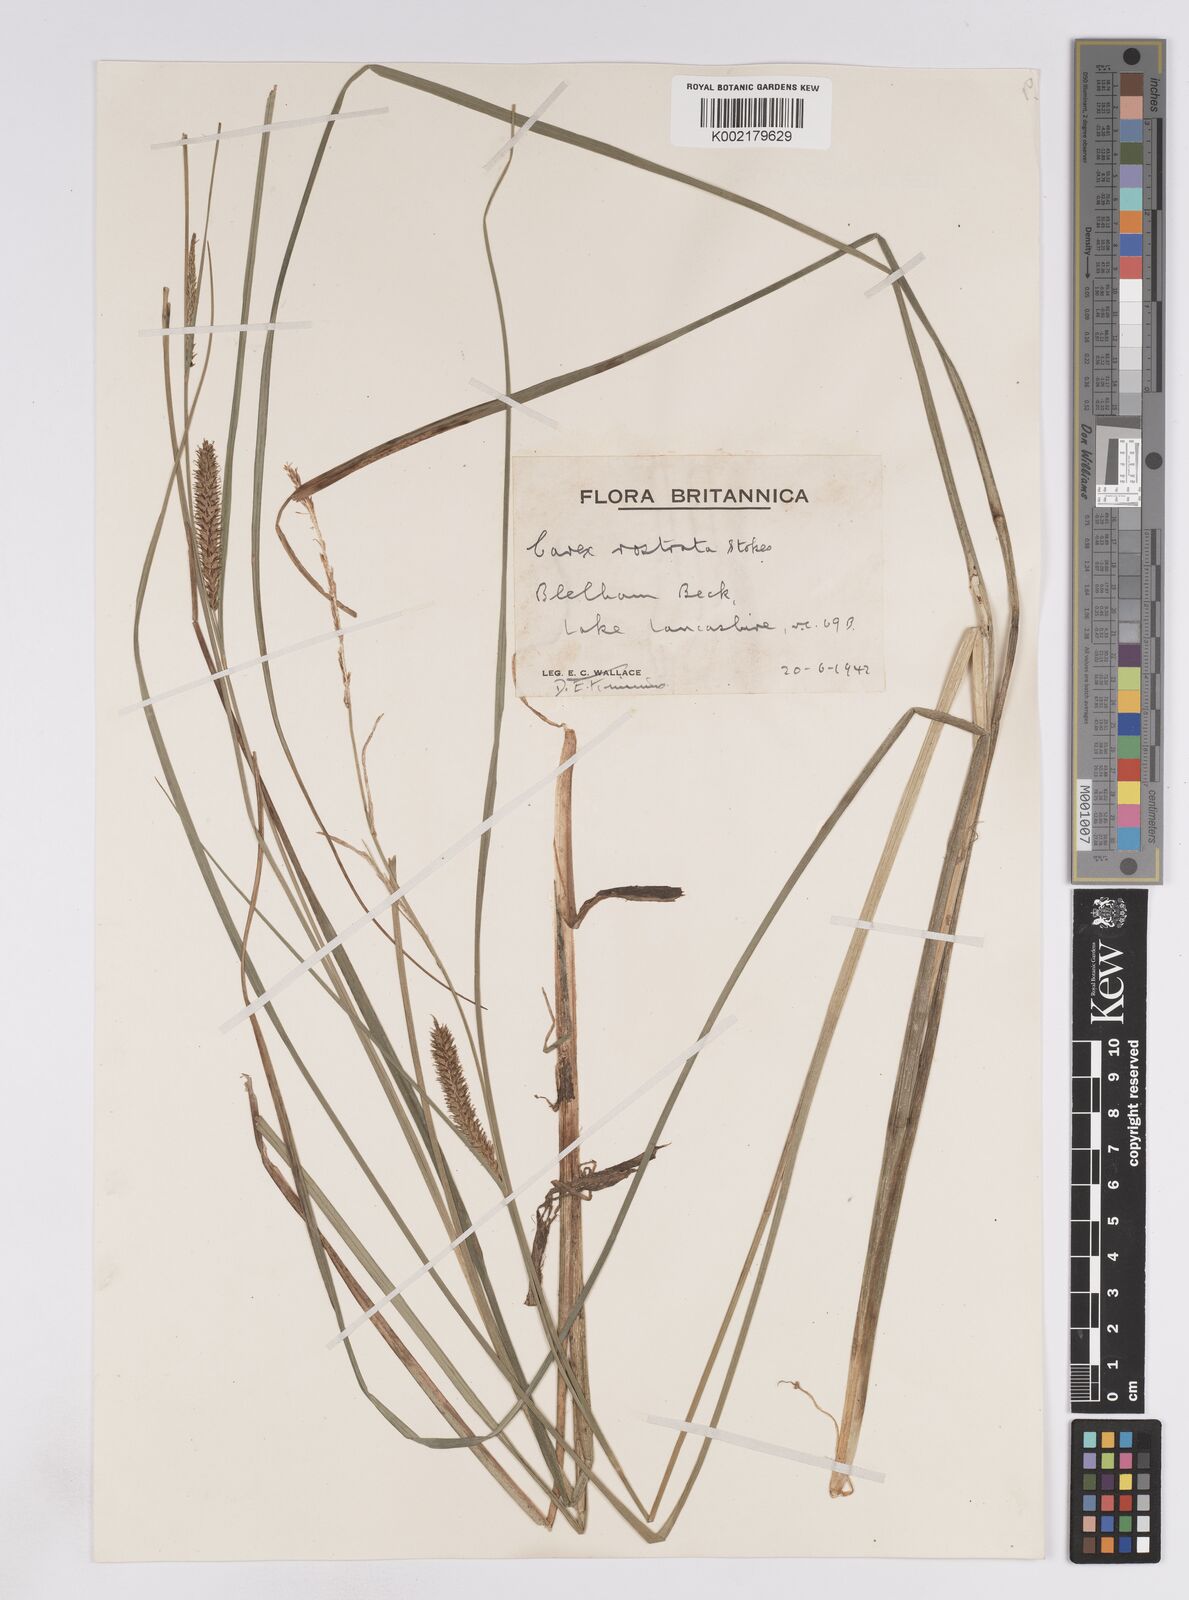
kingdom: Plantae
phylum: Tracheophyta
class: Liliopsida
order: Poales
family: Cyperaceae
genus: Carex
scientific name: Carex rostrata
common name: Bottle sedge
